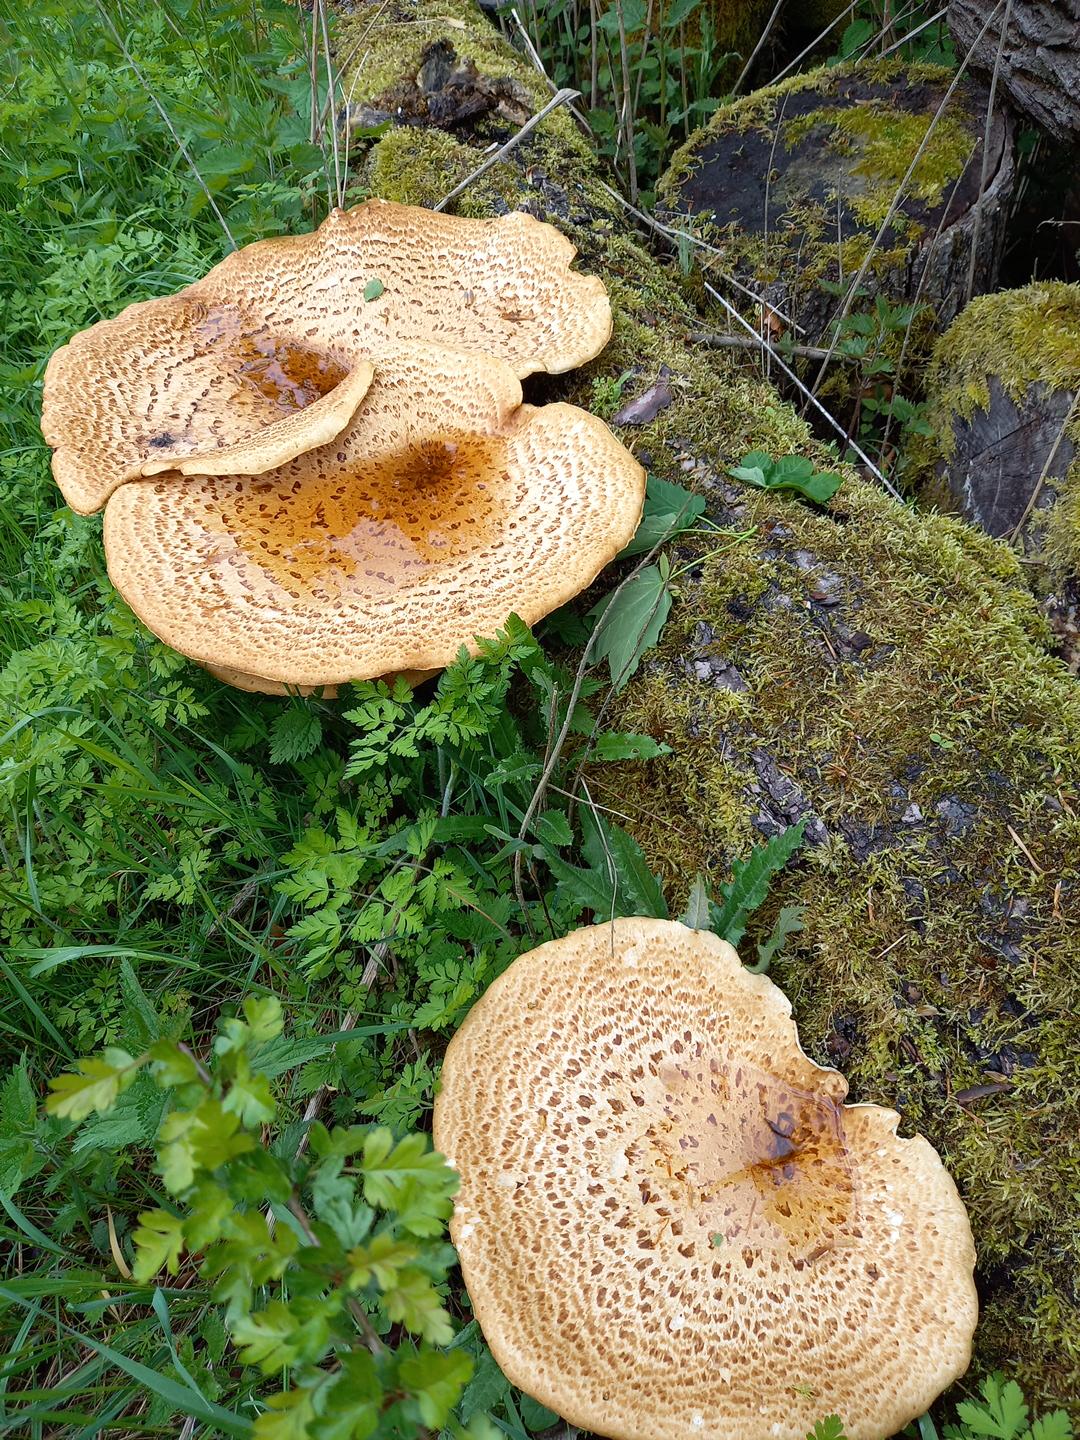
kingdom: Fungi
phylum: Basidiomycota
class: Agaricomycetes
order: Polyporales
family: Polyporaceae
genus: Cerioporus
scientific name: Cerioporus squamosus
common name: skællet stilkporesvamp
